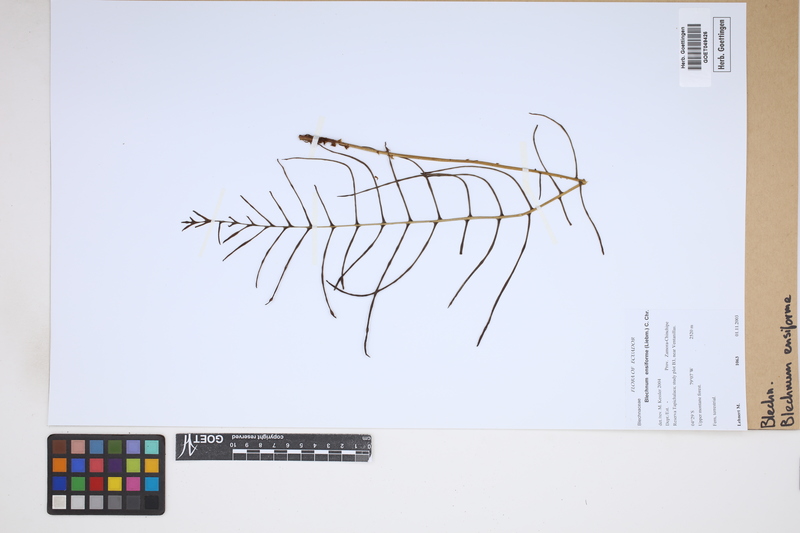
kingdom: Plantae
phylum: Tracheophyta
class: Polypodiopsida
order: Polypodiales
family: Blechnaceae
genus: Lomaridium
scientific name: Lomaridium ensiforme
